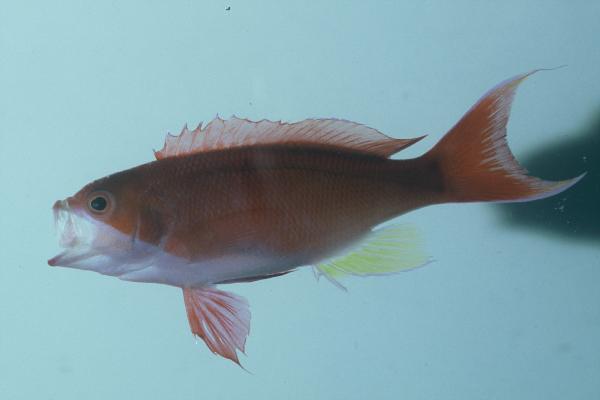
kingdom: Animalia
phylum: Chordata
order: Perciformes
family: Serranidae
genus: Pseudanthias
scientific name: Pseudanthias cooperi
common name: Red basslet
